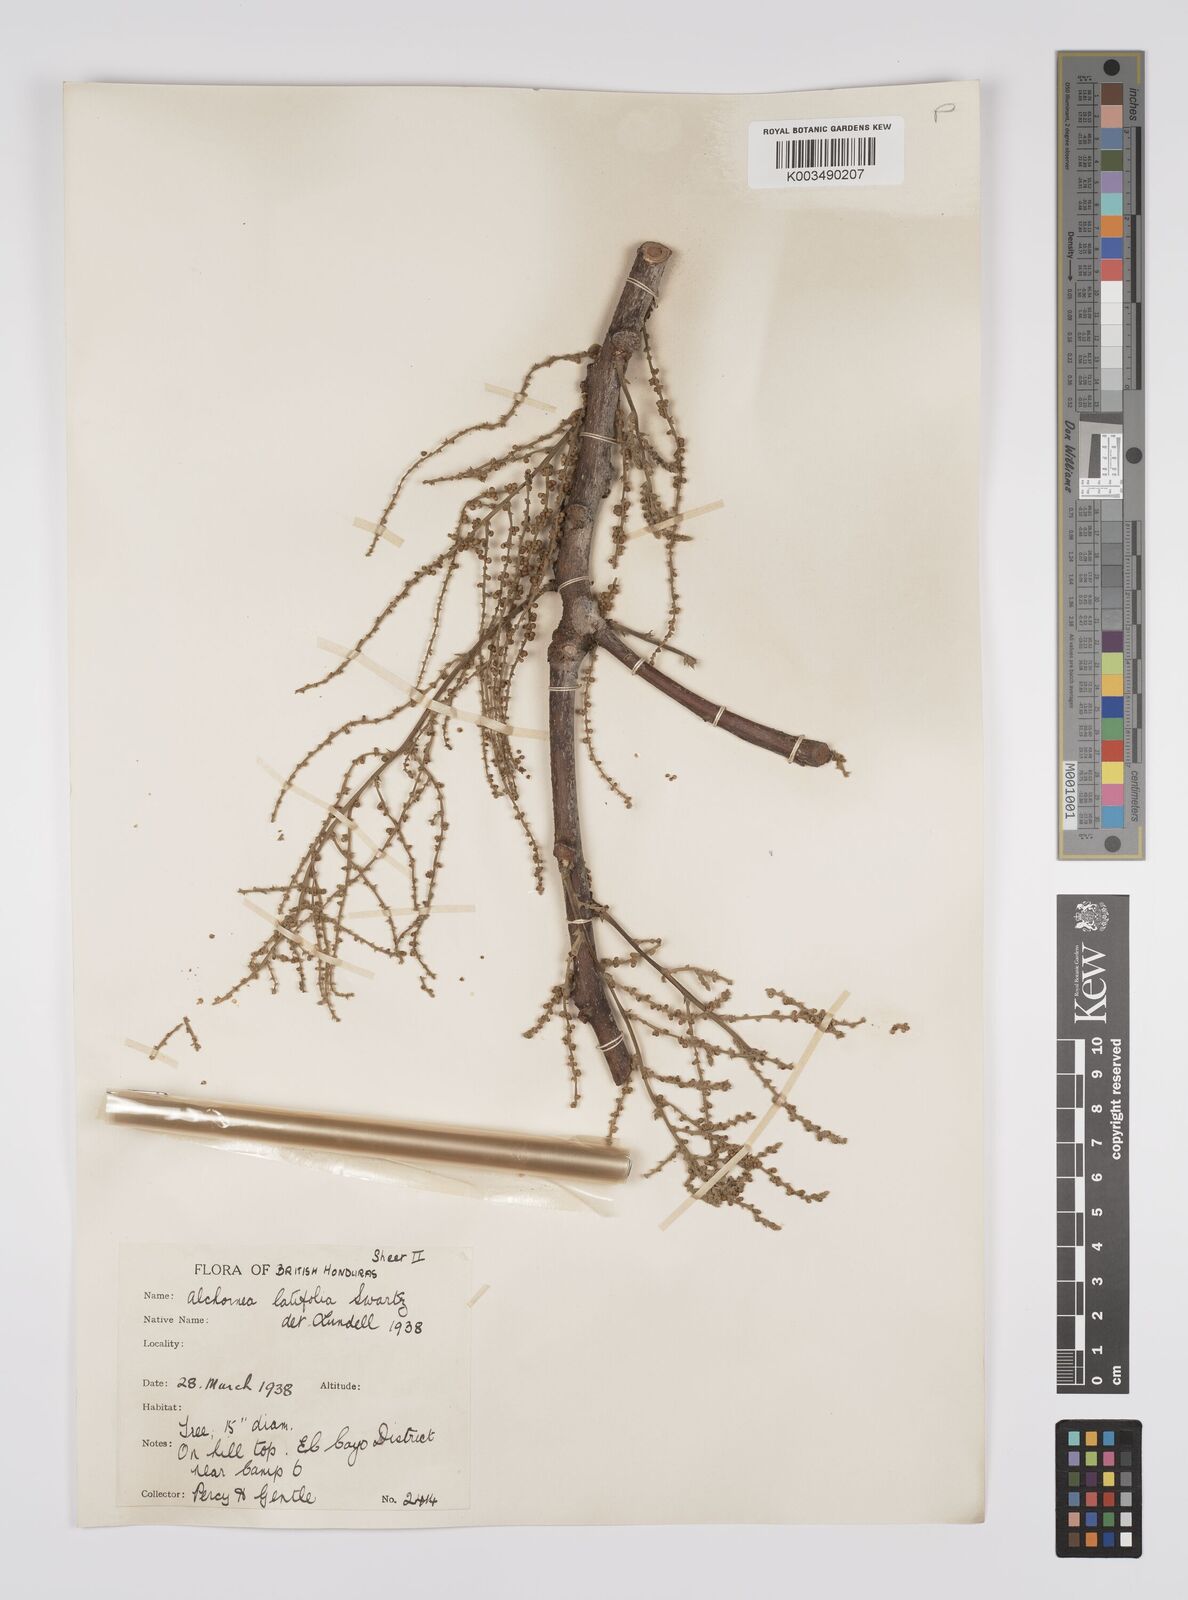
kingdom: Plantae
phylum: Tracheophyta
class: Magnoliopsida
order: Malpighiales
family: Euphorbiaceae
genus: Alchornea
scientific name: Alchornea latifolia
